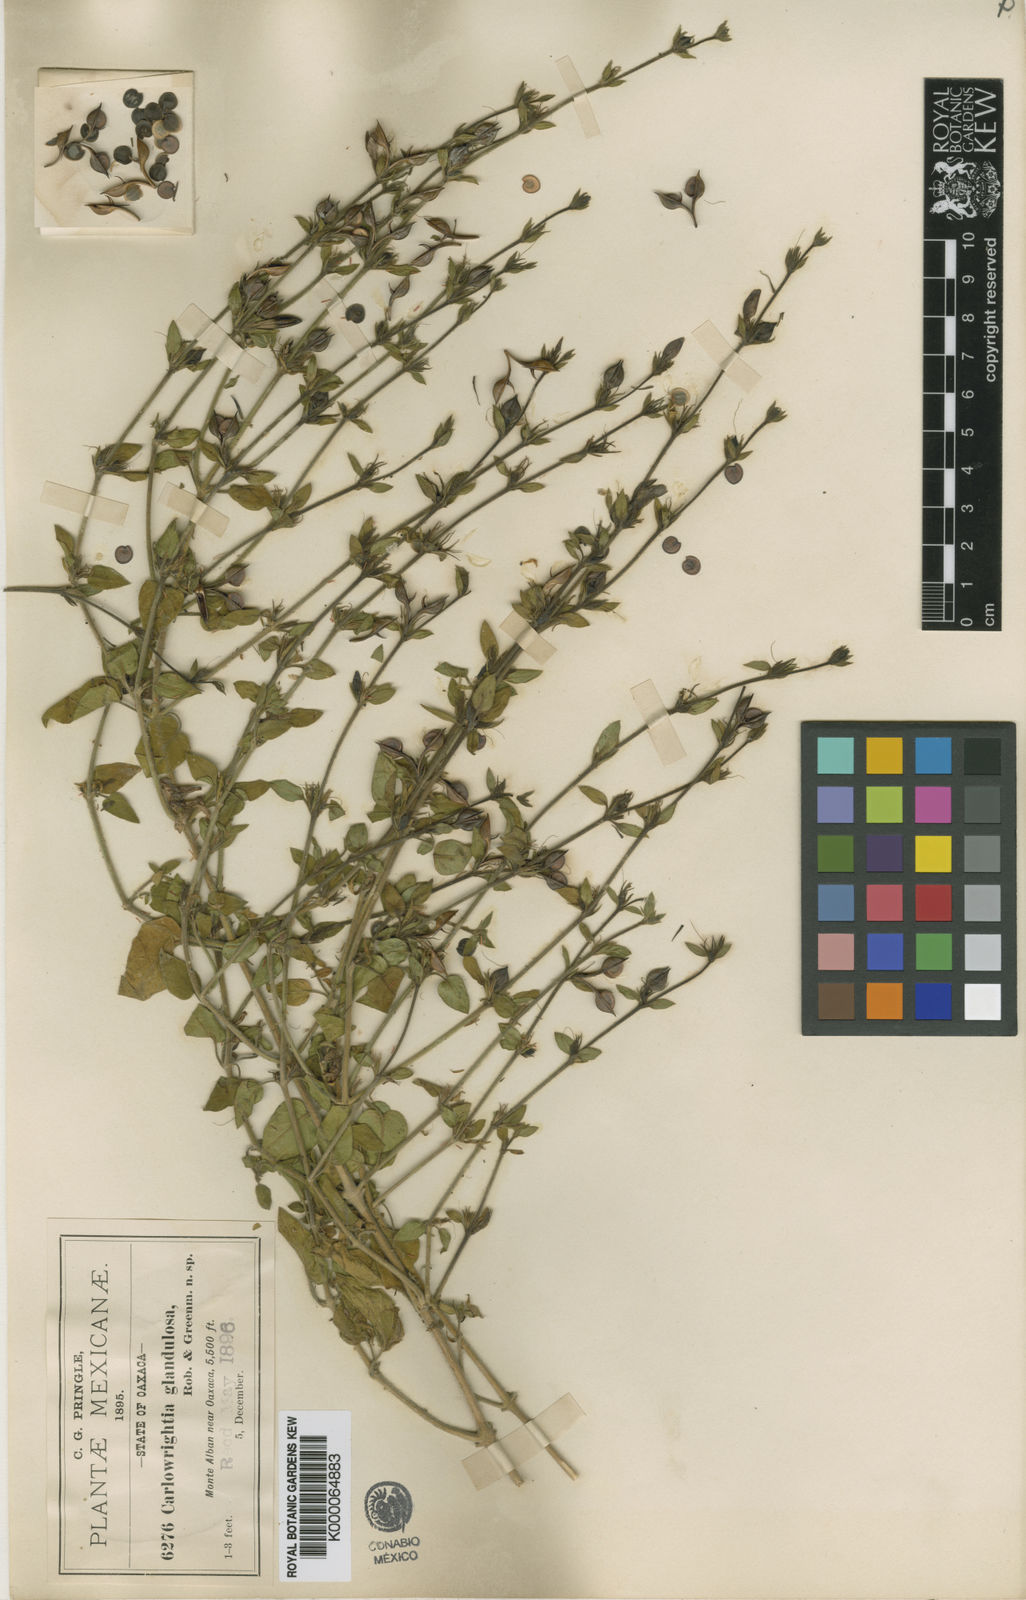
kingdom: Plantae
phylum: Tracheophyta
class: Magnoliopsida
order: Lamiales
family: Acanthaceae
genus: Carlowrightia
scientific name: Carlowrightia neesiana
